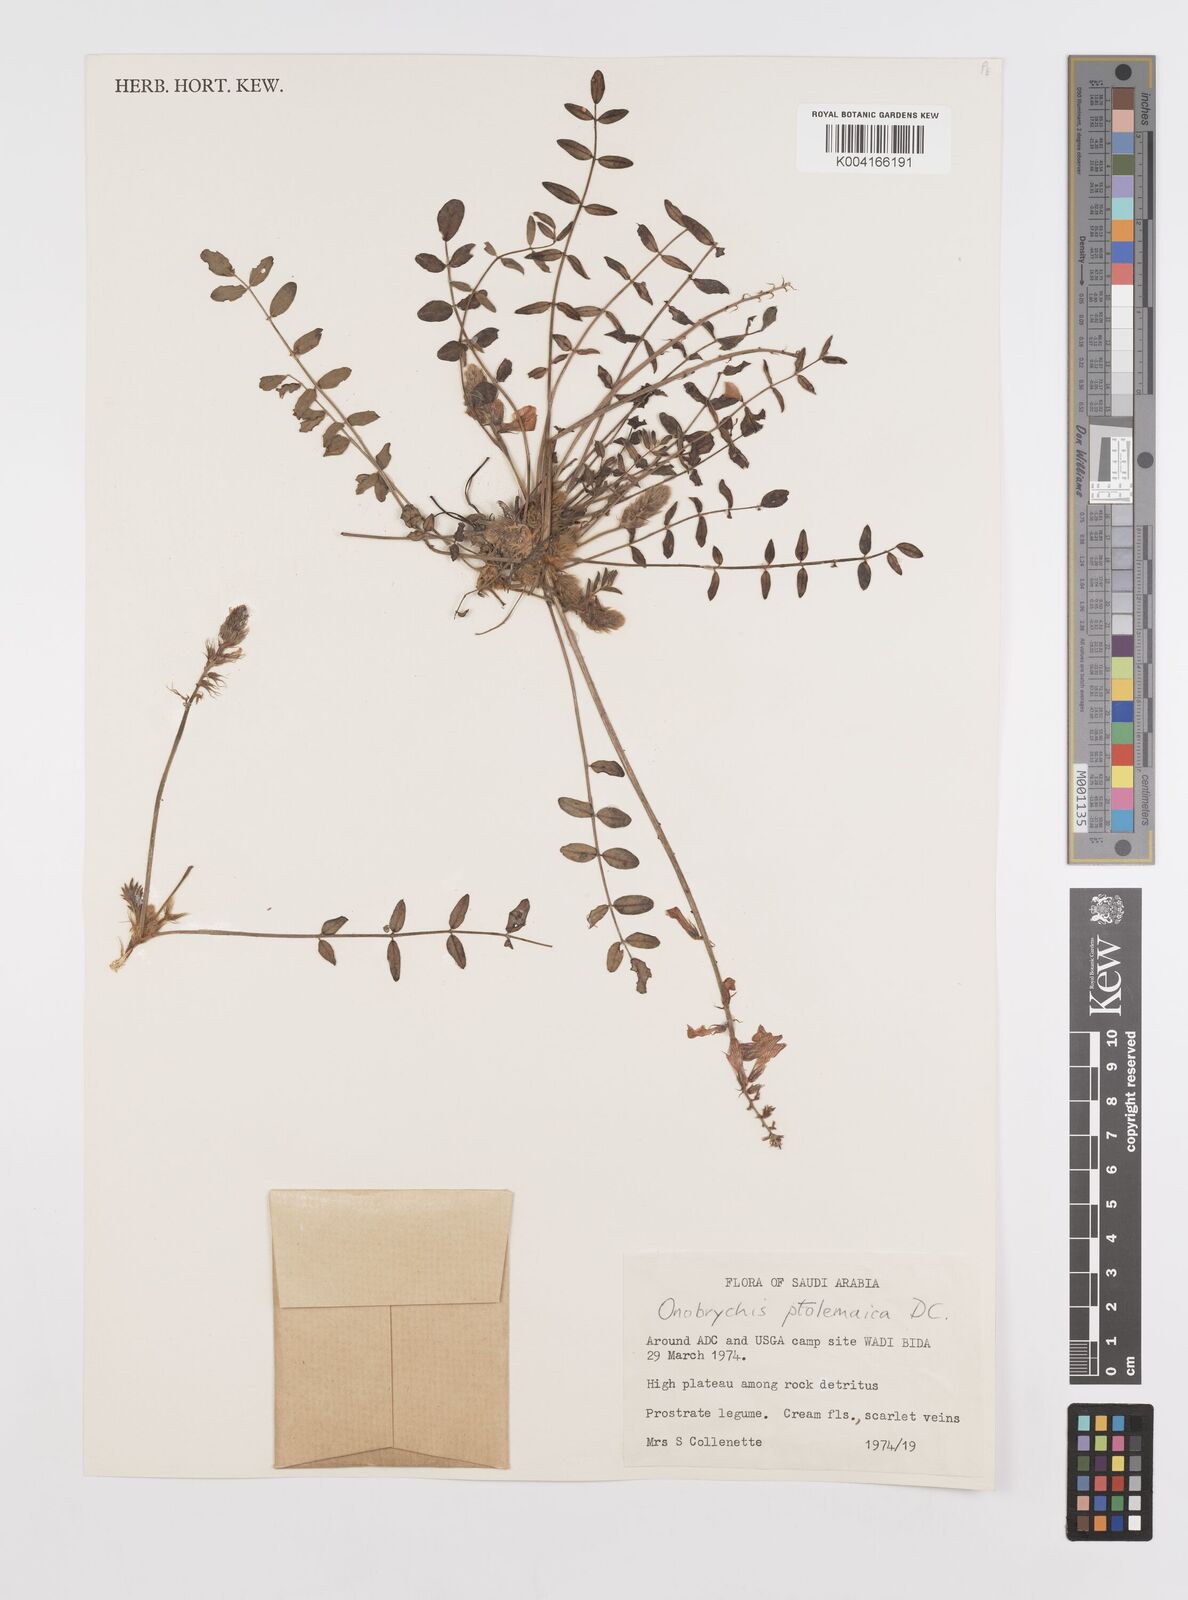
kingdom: Plantae
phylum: Tracheophyta
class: Magnoliopsida
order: Fabales
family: Fabaceae
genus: Onobrychis
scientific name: Onobrychis ptolemaica
